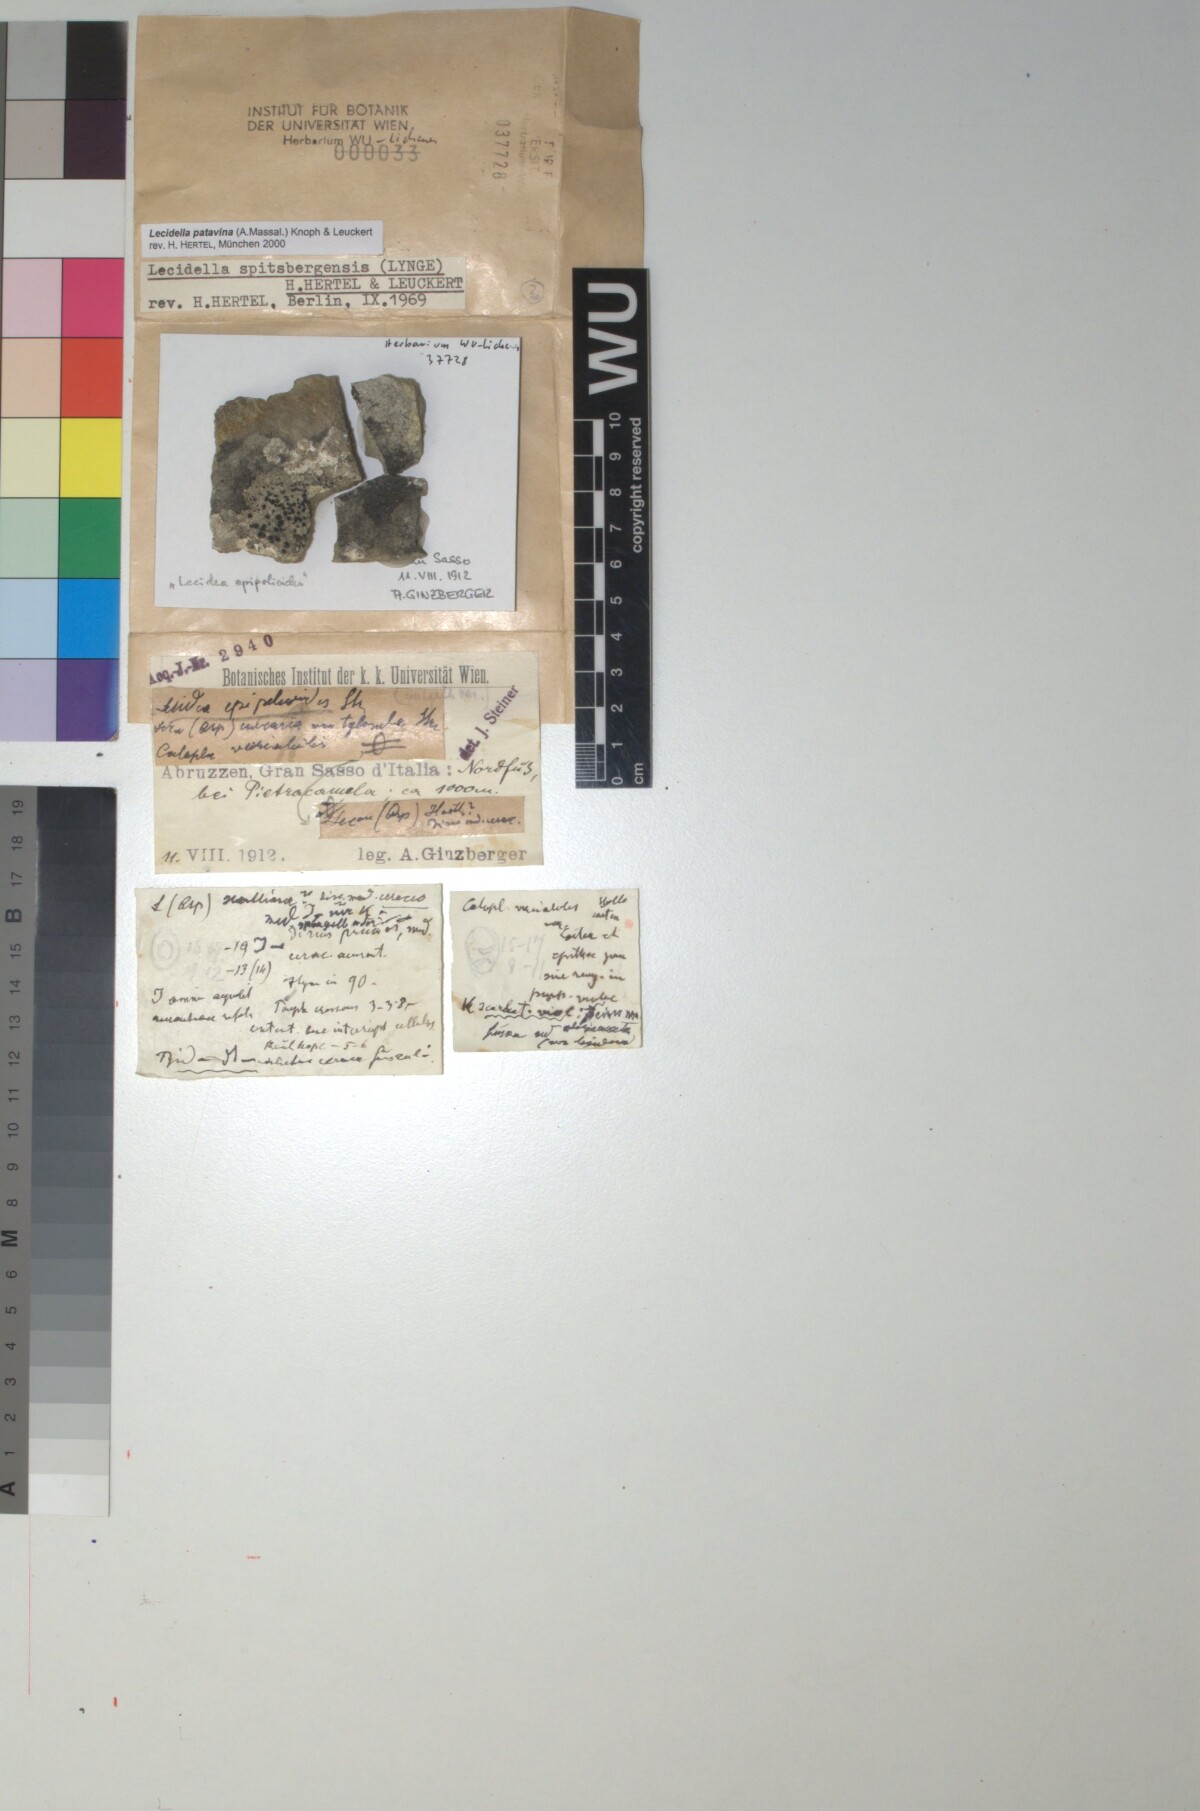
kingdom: Fungi
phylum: Ascomycota
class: Lecanoromycetes
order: Lecanorales
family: Lecanoraceae
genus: Lecidella
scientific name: Lecidella patavina
